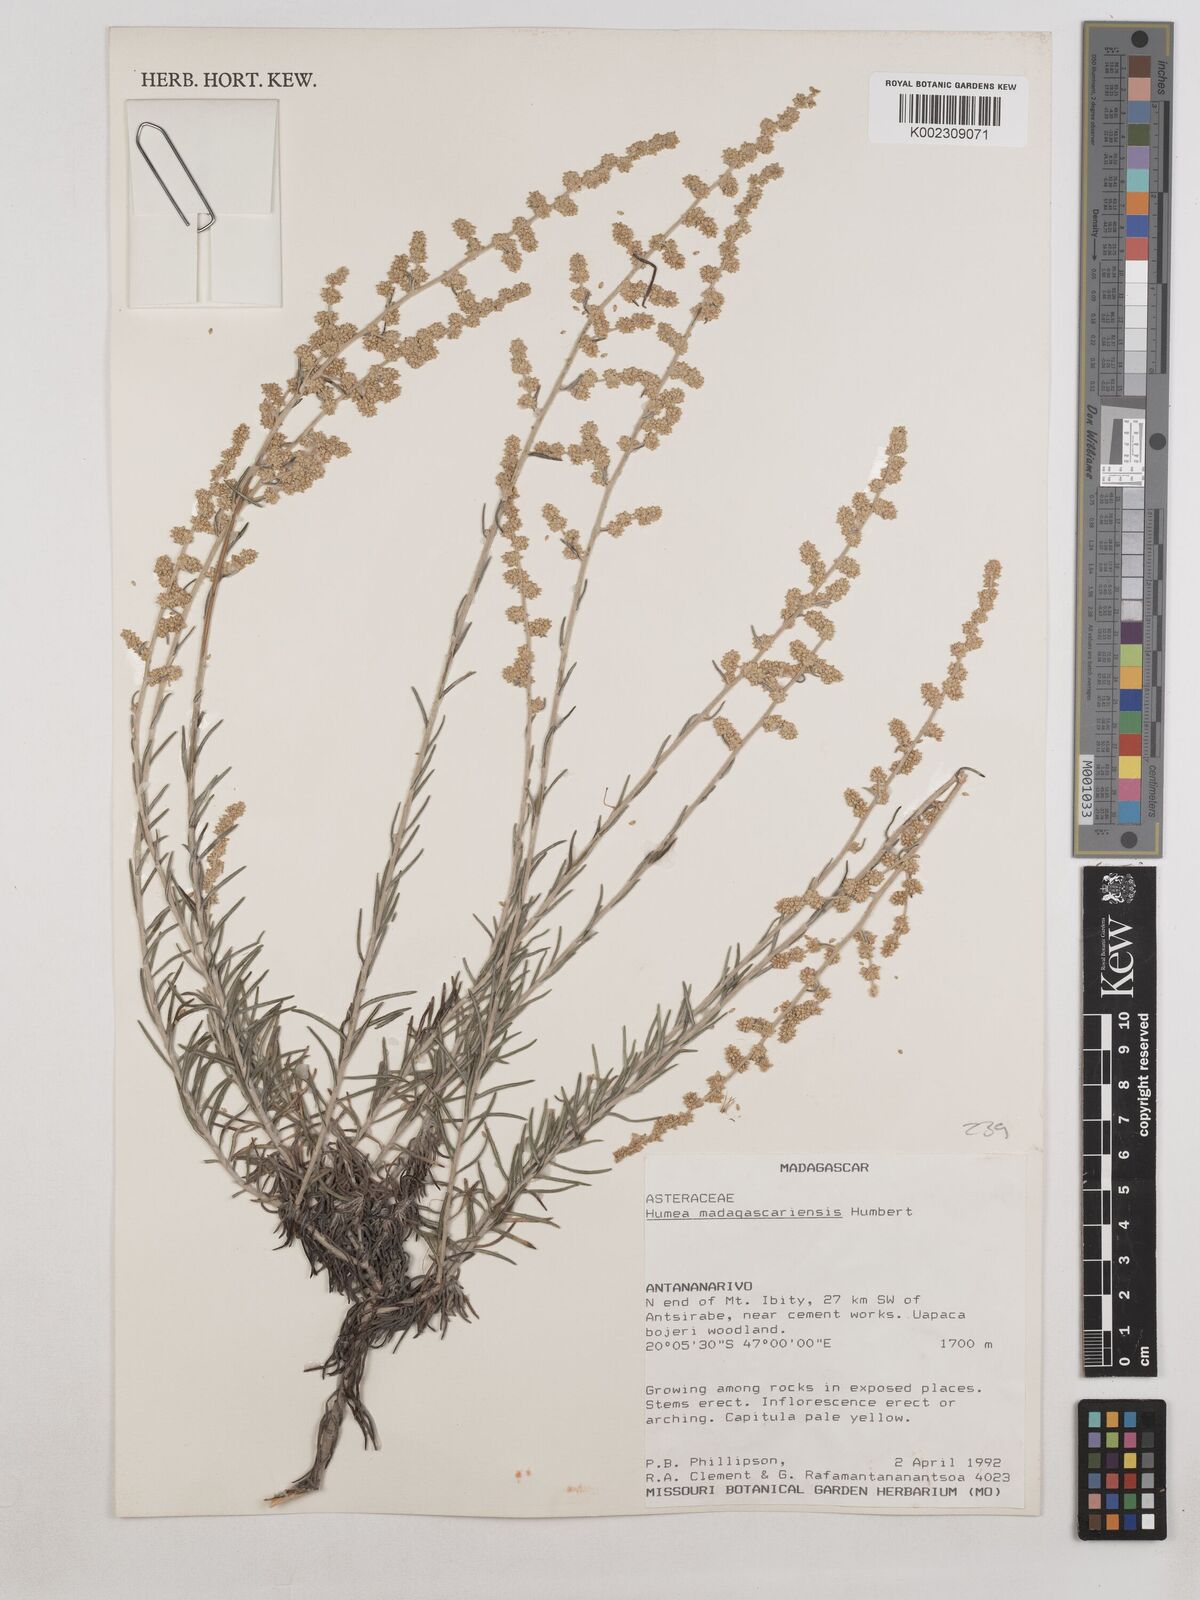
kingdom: Plantae
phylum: Tracheophyta
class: Magnoliopsida
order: Asterales
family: Asteraceae
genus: Humeocline
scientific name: Humeocline madagascariensis
